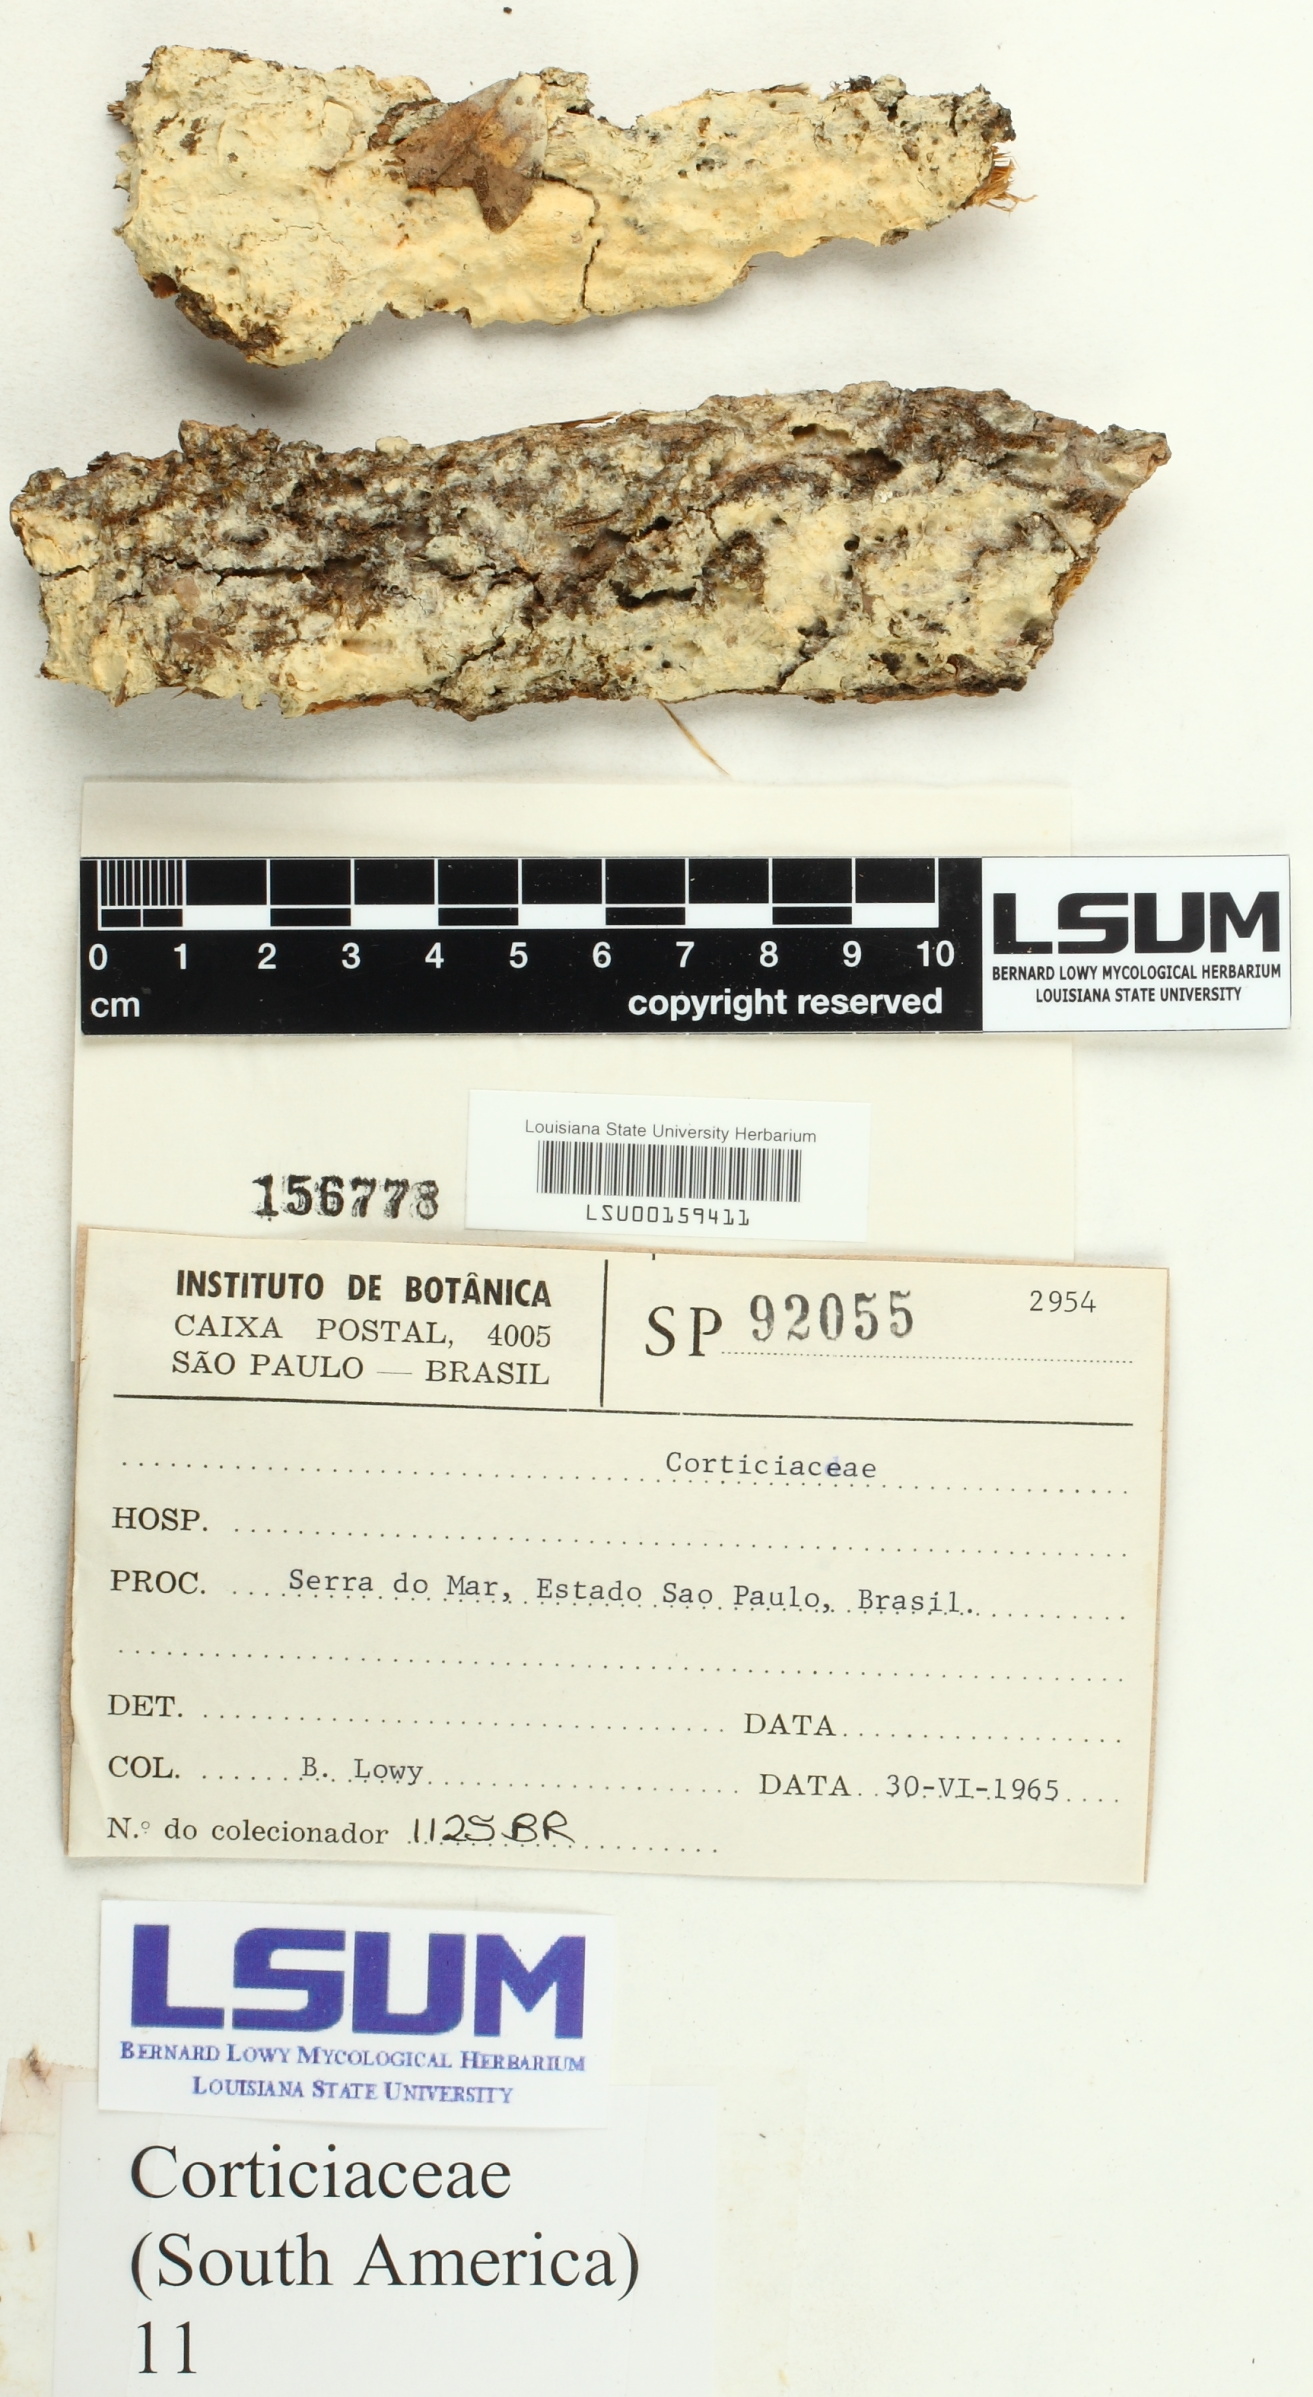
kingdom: Fungi
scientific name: Fungi
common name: Fungi
